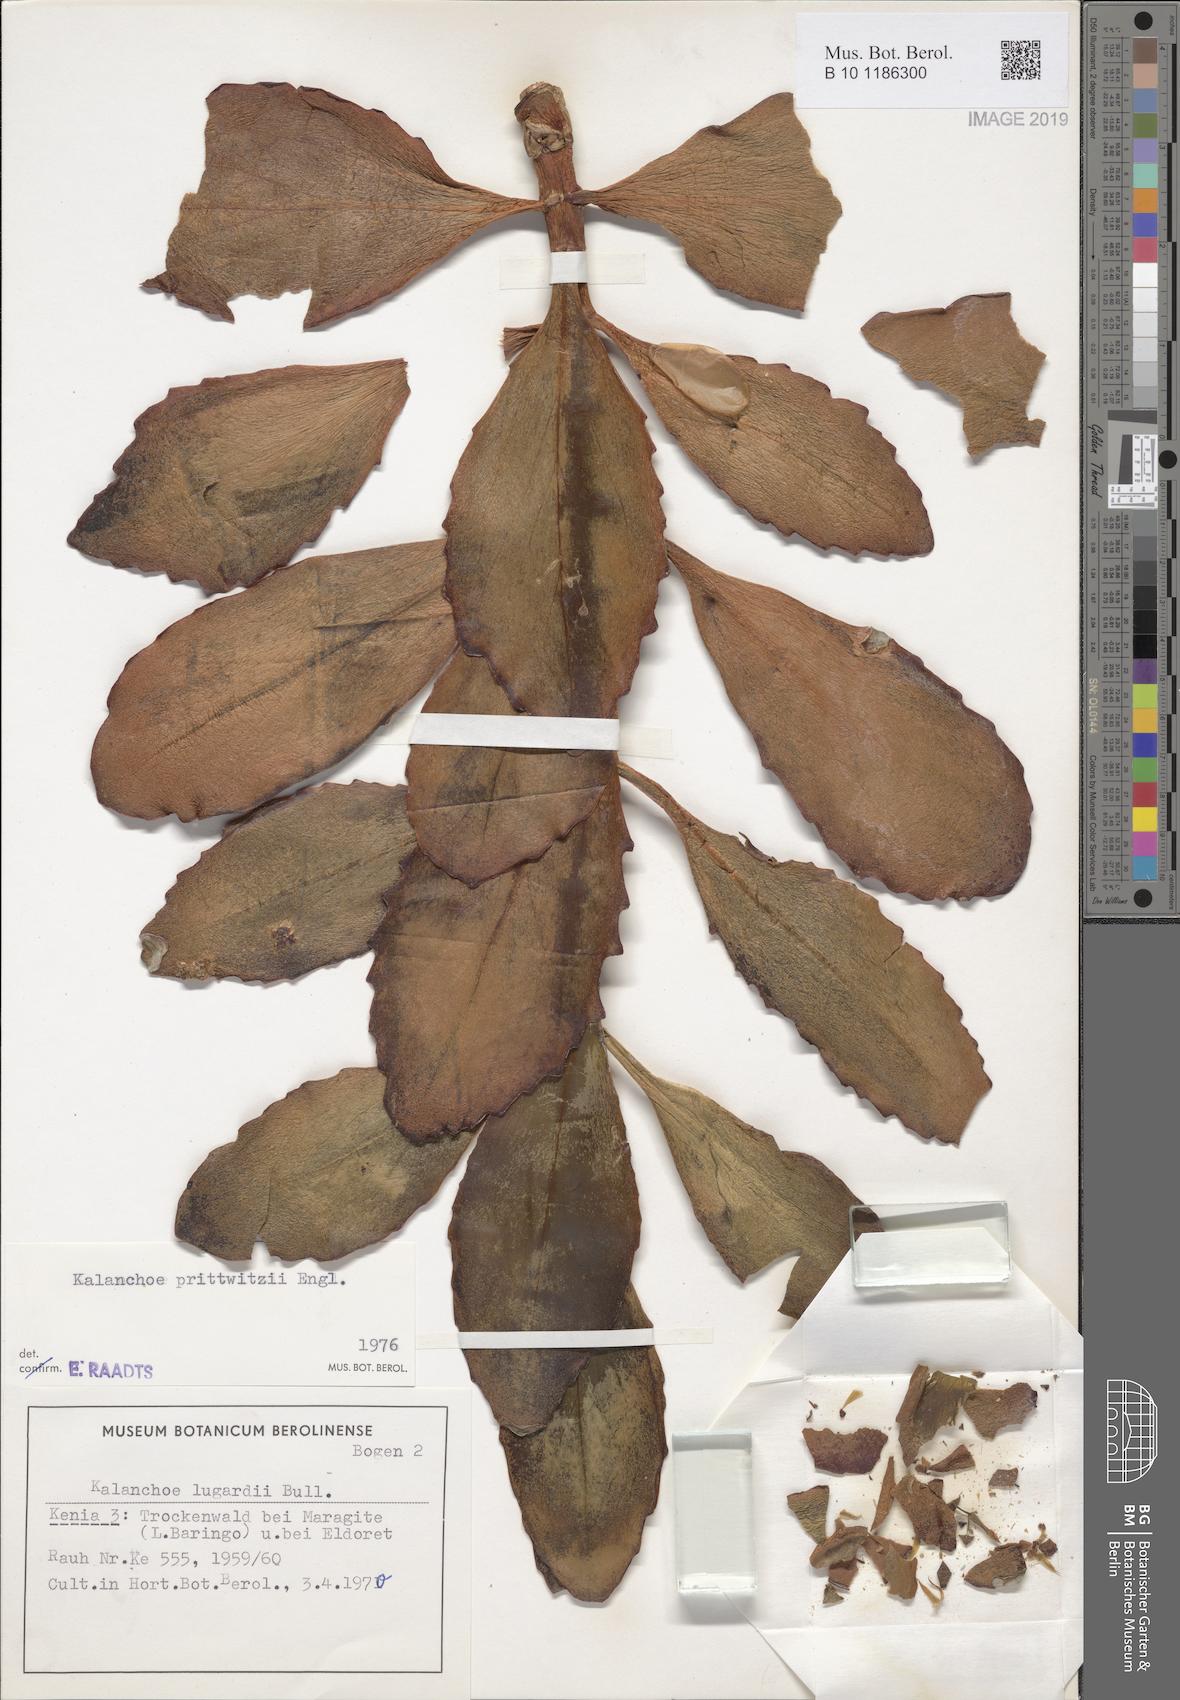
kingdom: Plantae
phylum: Tracheophyta
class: Magnoliopsida
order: Saxifragales
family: Crassulaceae
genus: Kalanchoe
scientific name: Kalanchoe prittwitzii
